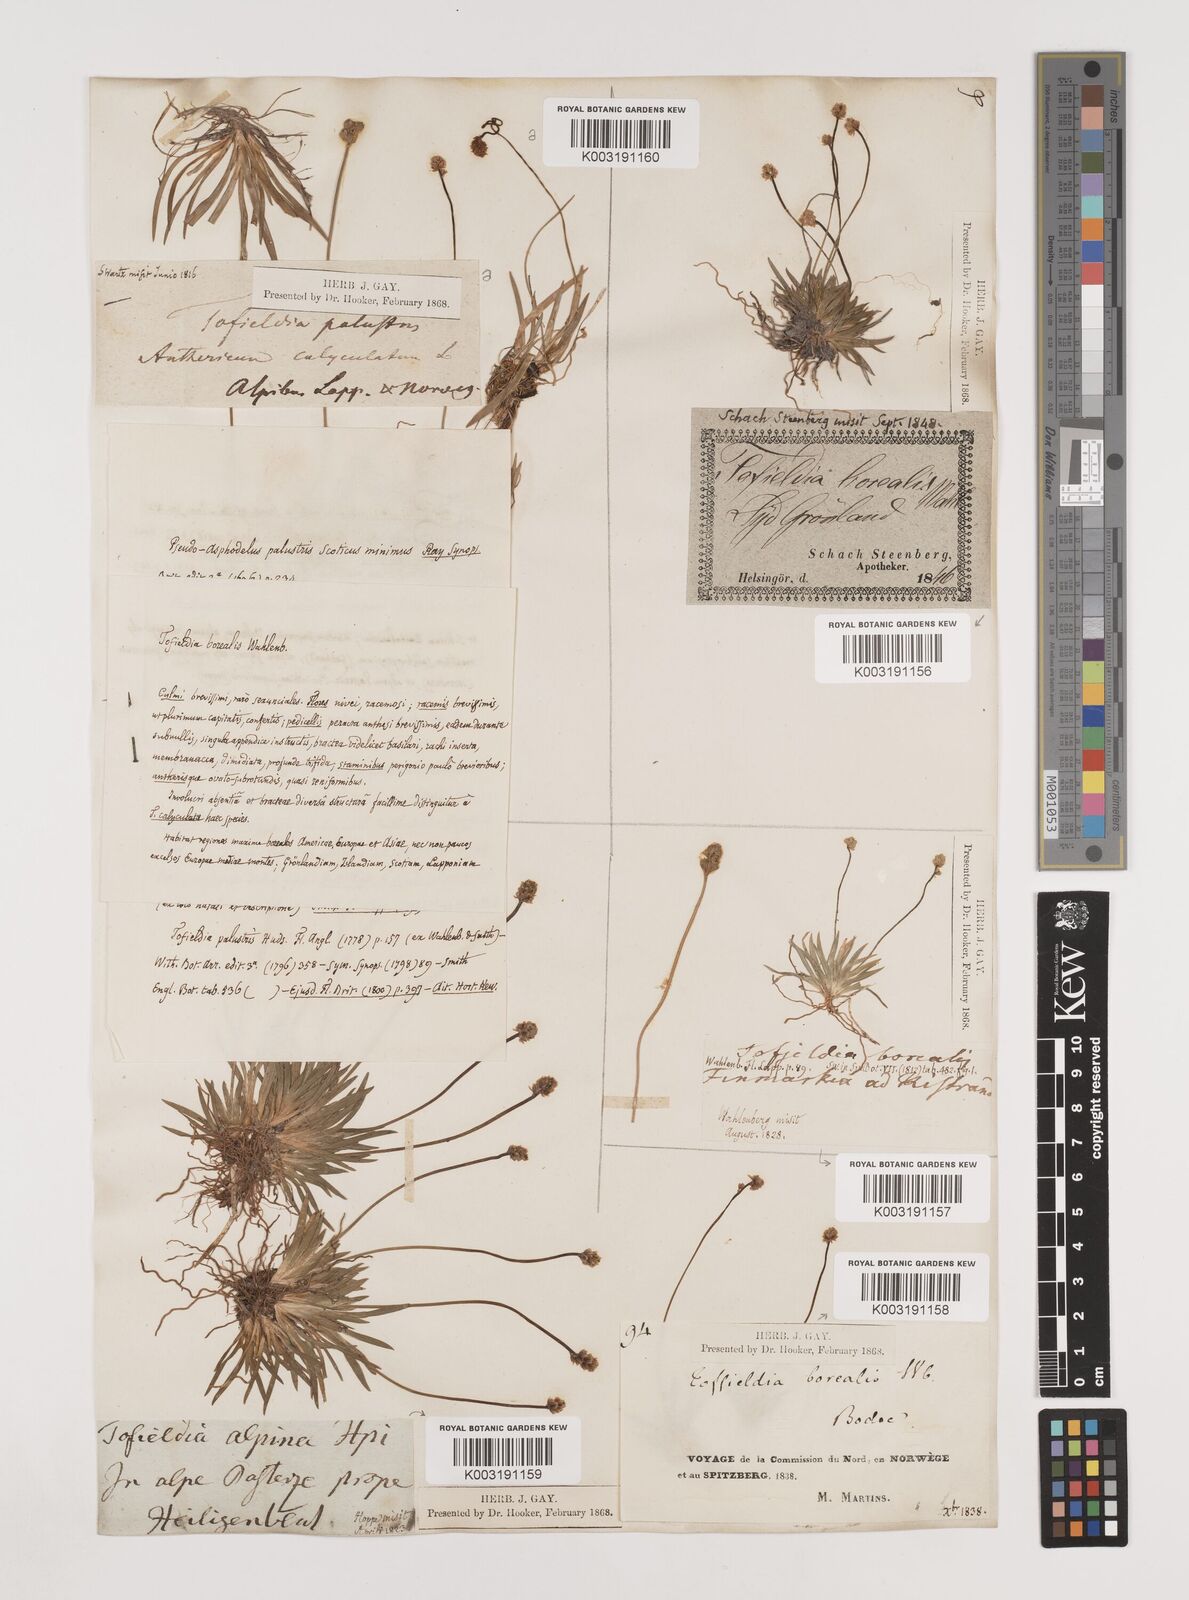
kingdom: Plantae
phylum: Tracheophyta
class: Liliopsida
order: Alismatales
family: Tofieldiaceae
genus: Tofieldia
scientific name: Tofieldia pusilla
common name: Scottish false asphodel
